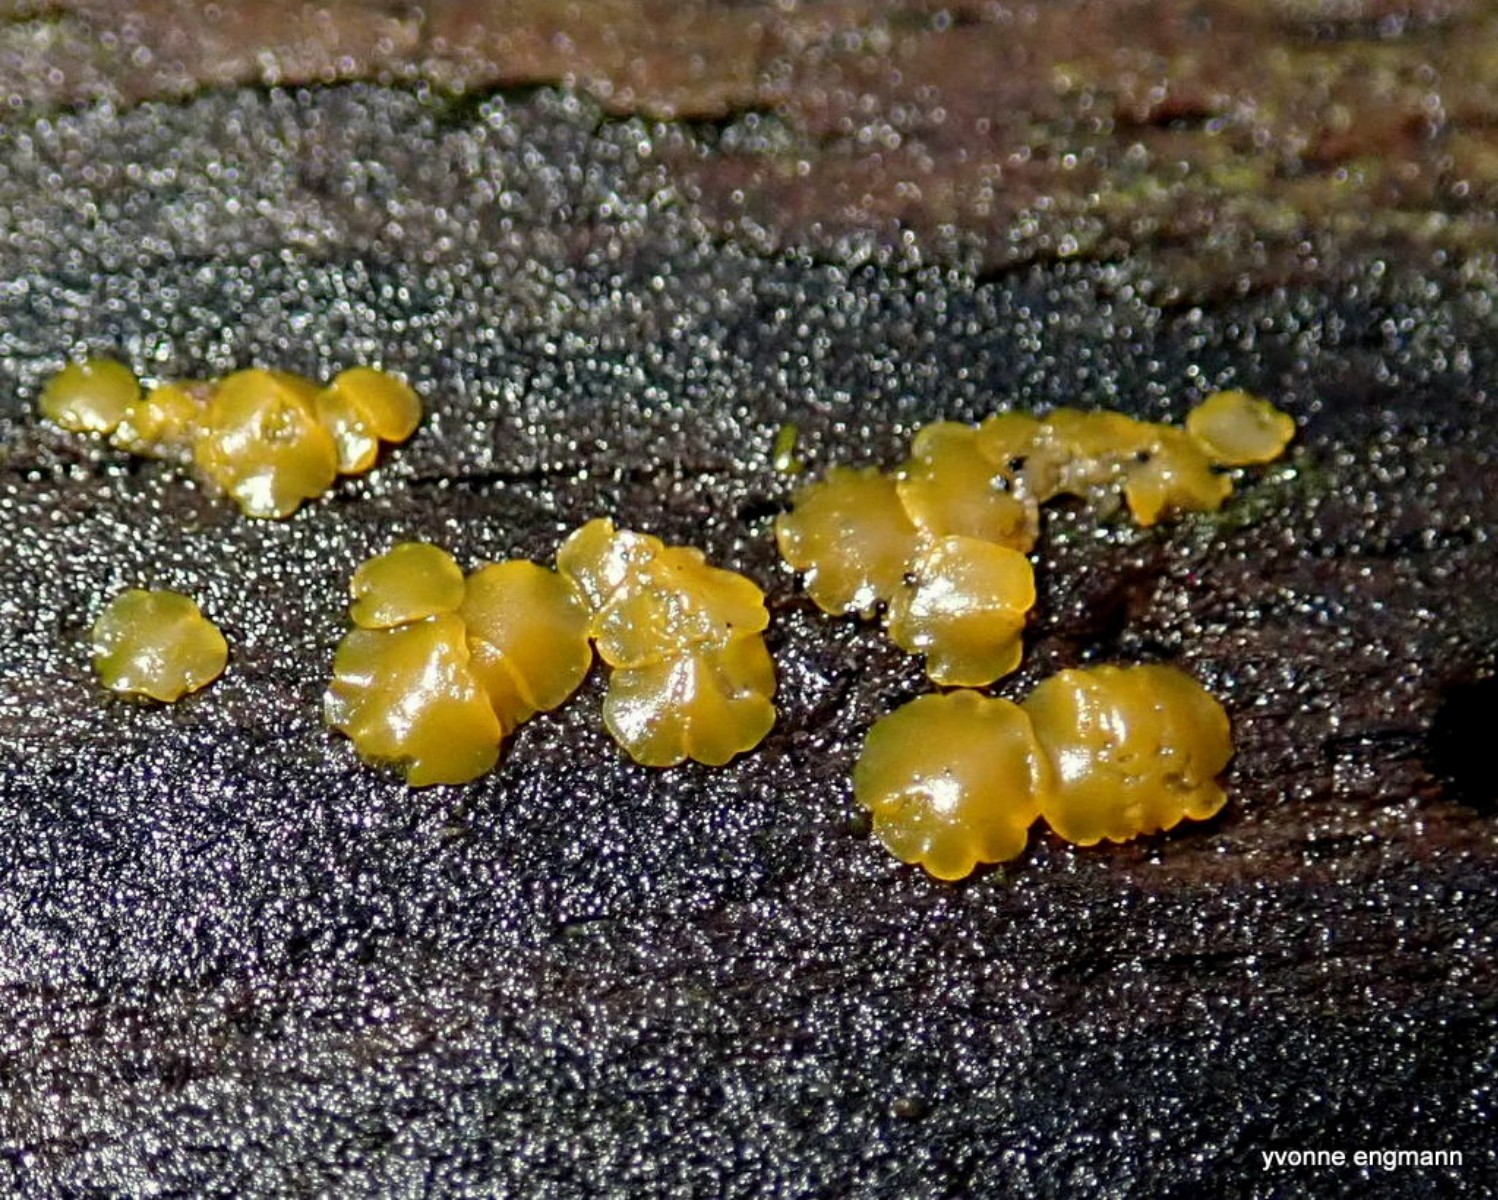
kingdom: Fungi
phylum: Basidiomycota
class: Dacrymycetes
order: Dacrymycetales
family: Dacrymycetaceae
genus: Dacrymyces
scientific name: Dacrymyces lacrymalis
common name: rynket tåresvamp
